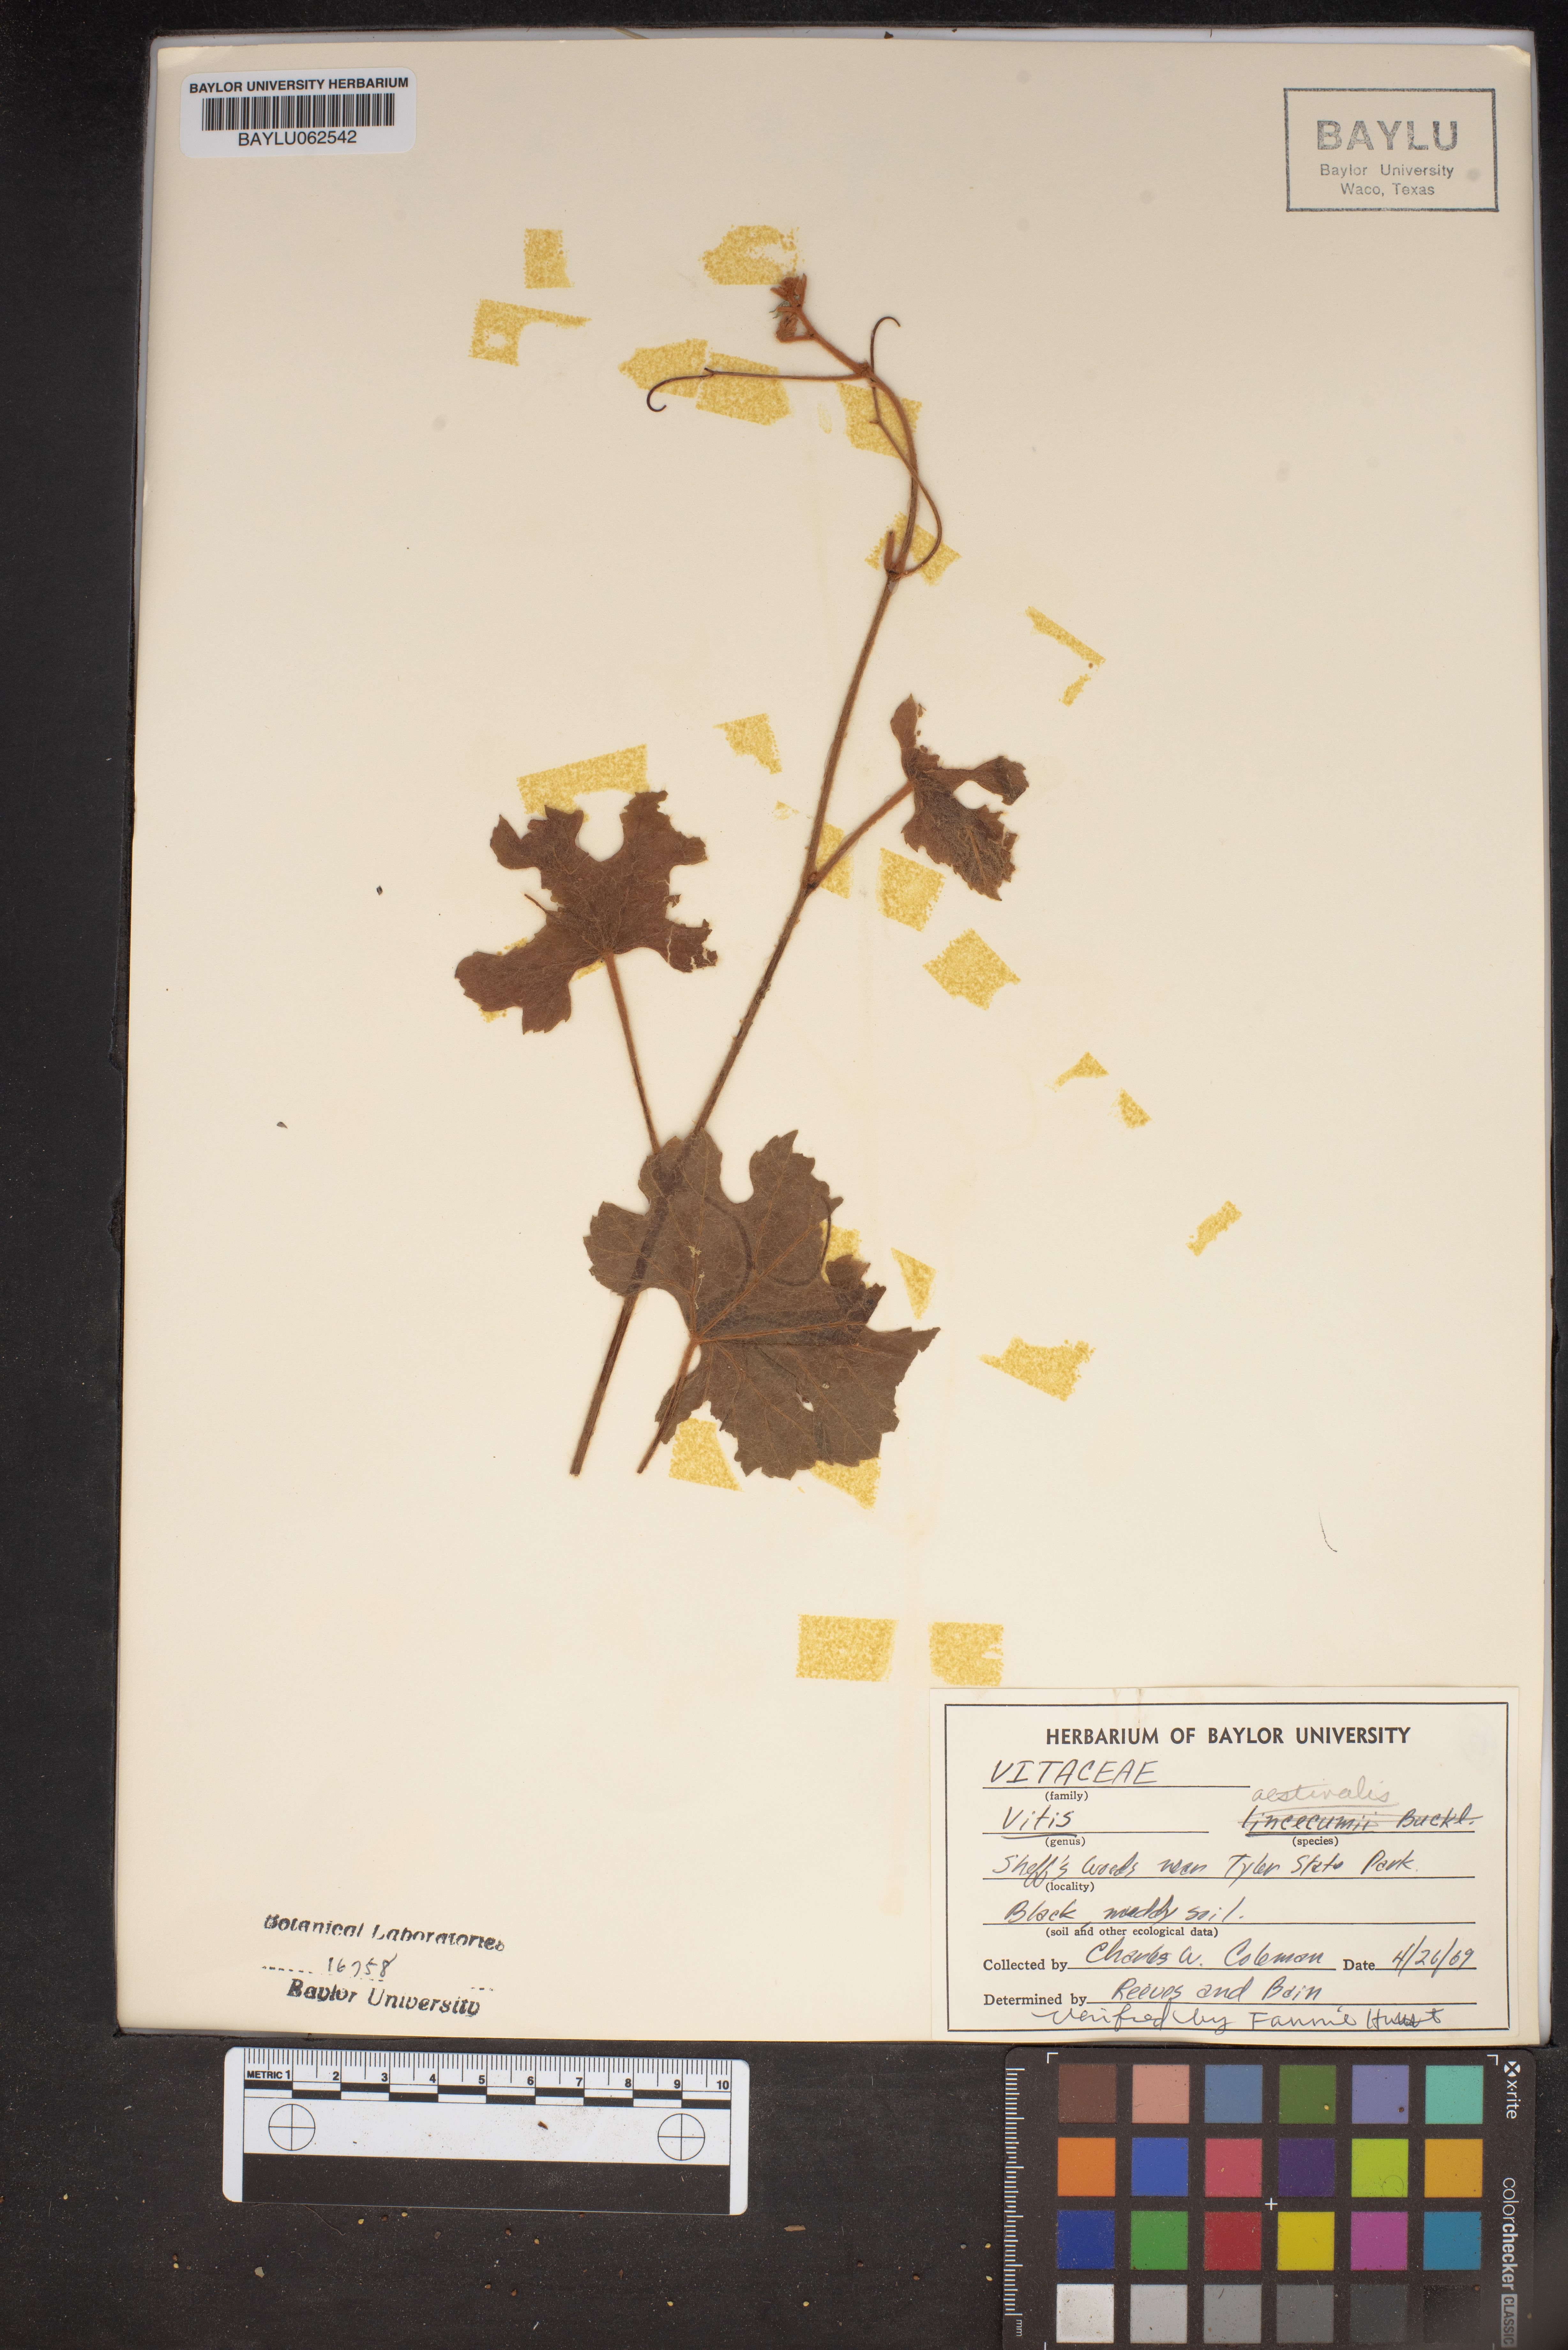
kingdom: Plantae
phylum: Tracheophyta
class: Magnoliopsida
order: Vitales
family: Vitaceae
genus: Vitis
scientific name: Vitis aestivalis
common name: Pigeon grape
